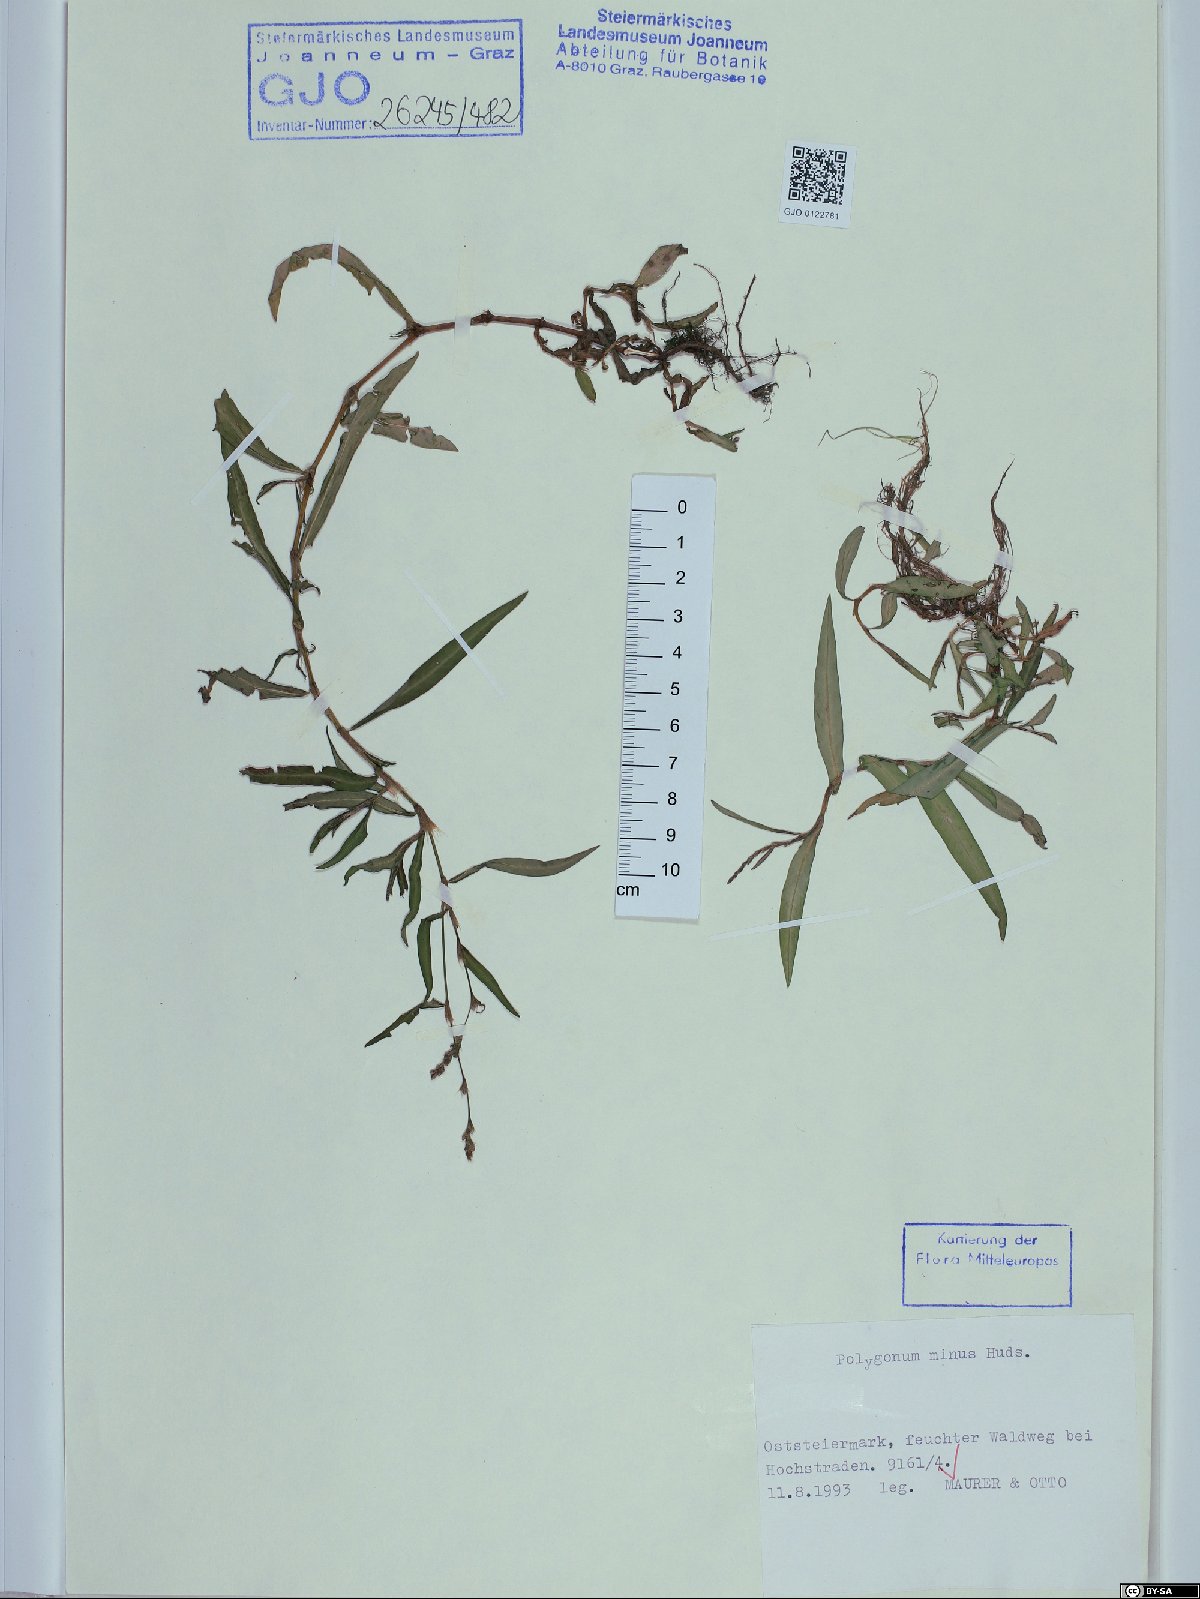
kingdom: Plantae
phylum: Tracheophyta
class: Magnoliopsida
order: Caryophyllales
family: Polygonaceae
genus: Persicaria
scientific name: Persicaria minor
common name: Small water-pepper
